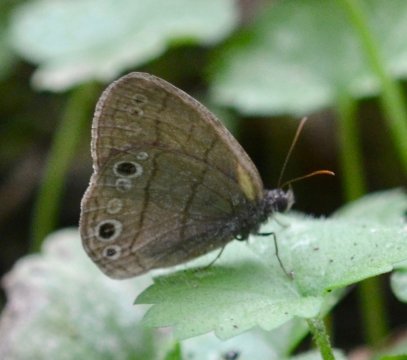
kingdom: Animalia
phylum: Arthropoda
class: Insecta
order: Lepidoptera
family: Nymphalidae
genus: Hermeuptychia
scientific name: Hermeuptychia hermes
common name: Carolina Satyr
